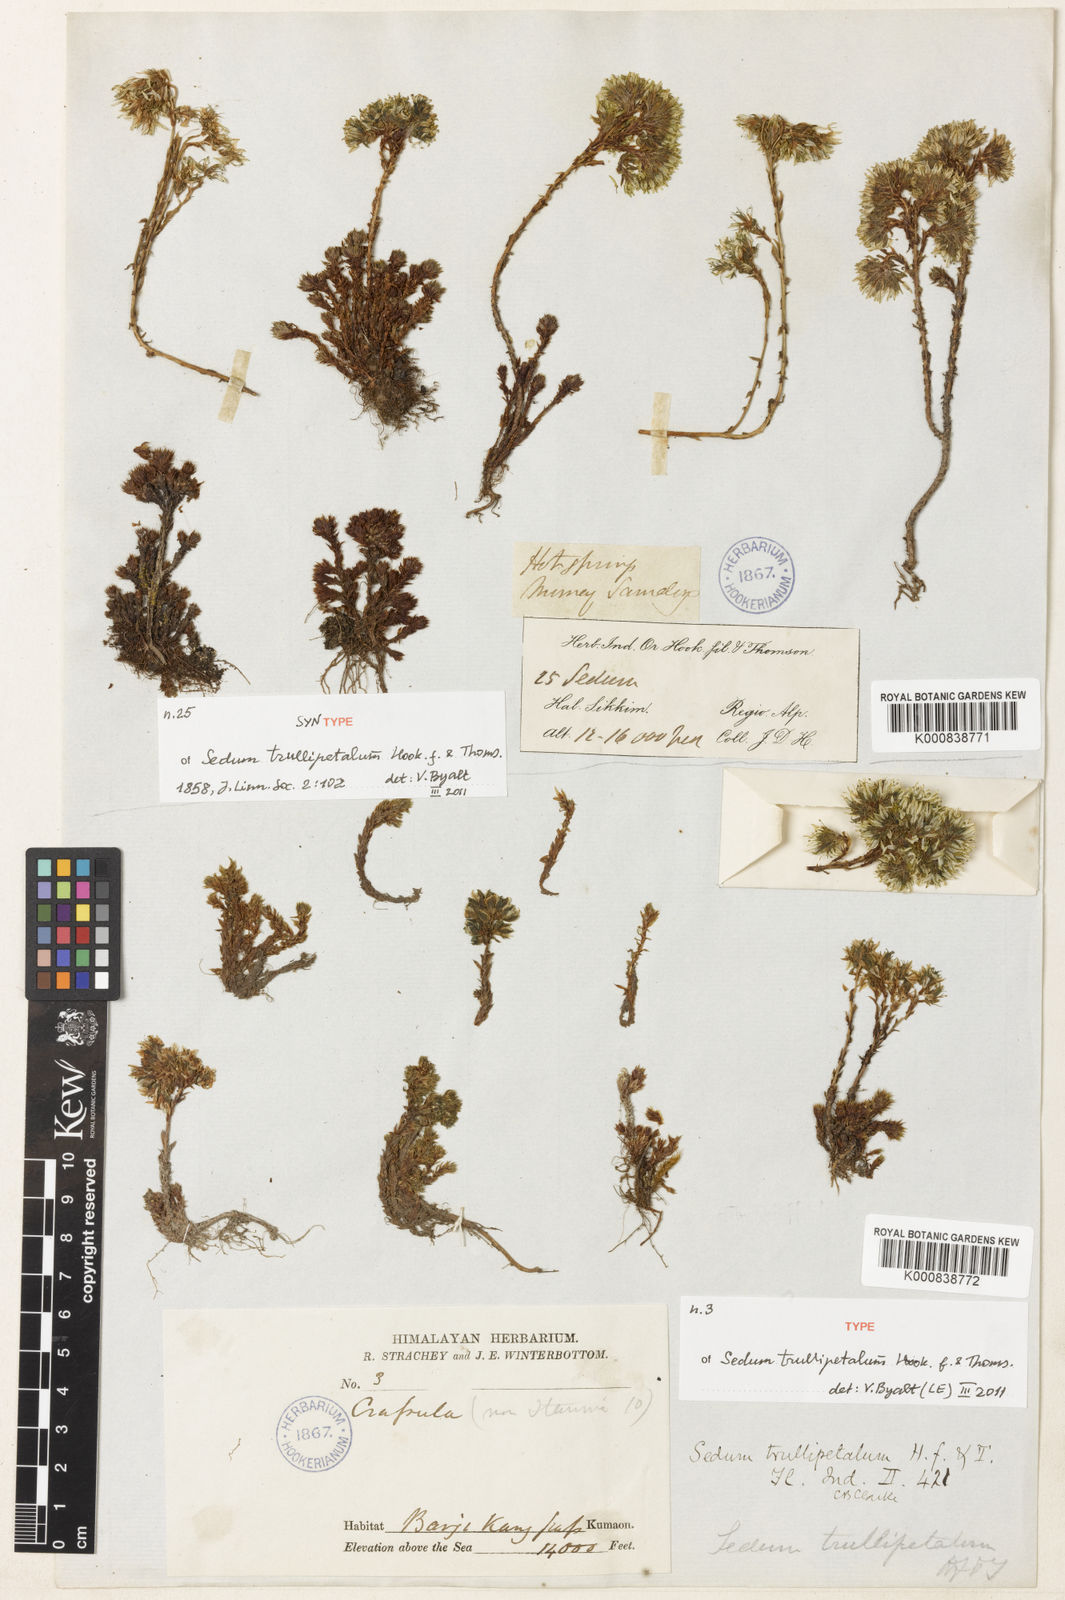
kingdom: Plantae
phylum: Tracheophyta
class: Magnoliopsida
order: Saxifragales
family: Crassulaceae
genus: Sedum
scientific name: Sedum trullipetalum
